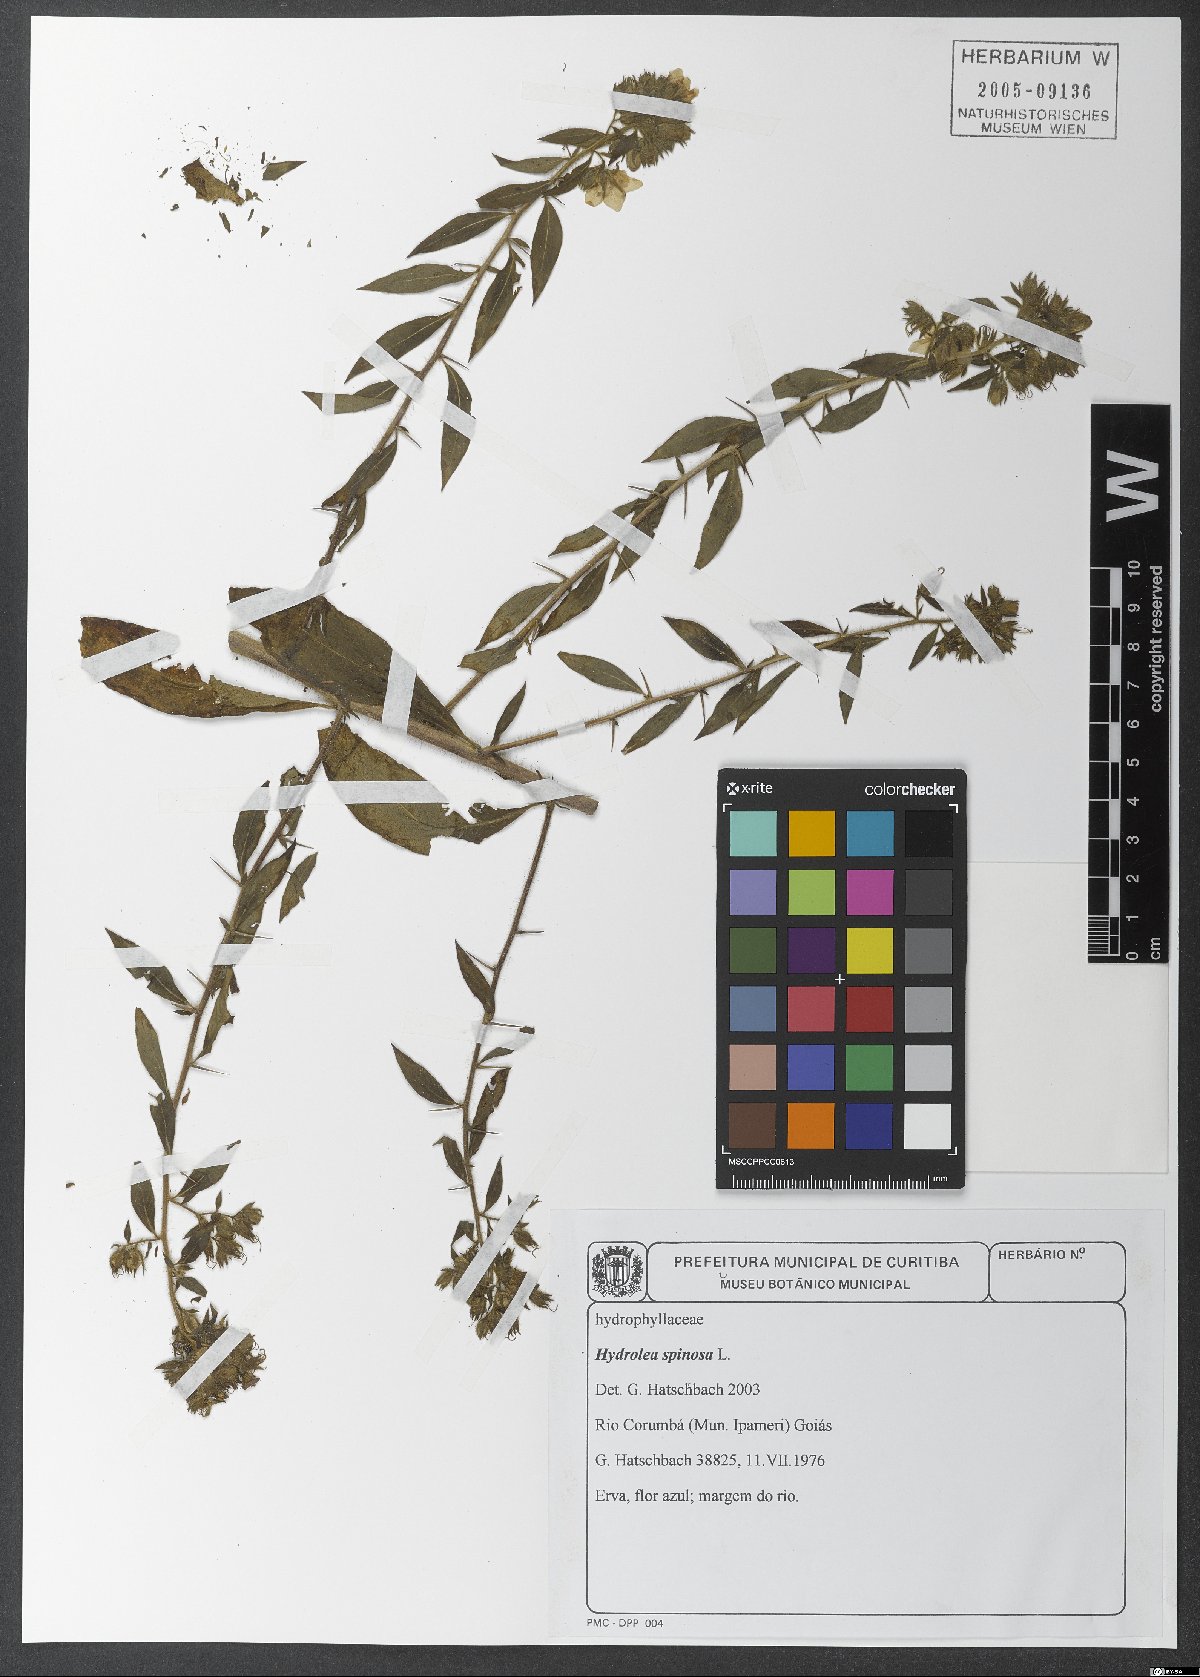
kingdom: Plantae
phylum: Tracheophyta
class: Magnoliopsida
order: Solanales
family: Hydroleaceae
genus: Hydrolea
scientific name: Hydrolea spinosa
